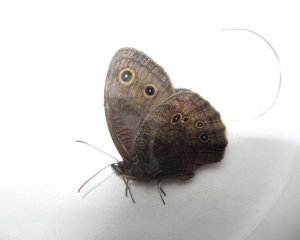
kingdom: Animalia
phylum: Arthropoda
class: Insecta
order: Lepidoptera
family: Nymphalidae
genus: Cercyonis
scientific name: Cercyonis pegala
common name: Common Wood-Nymph
